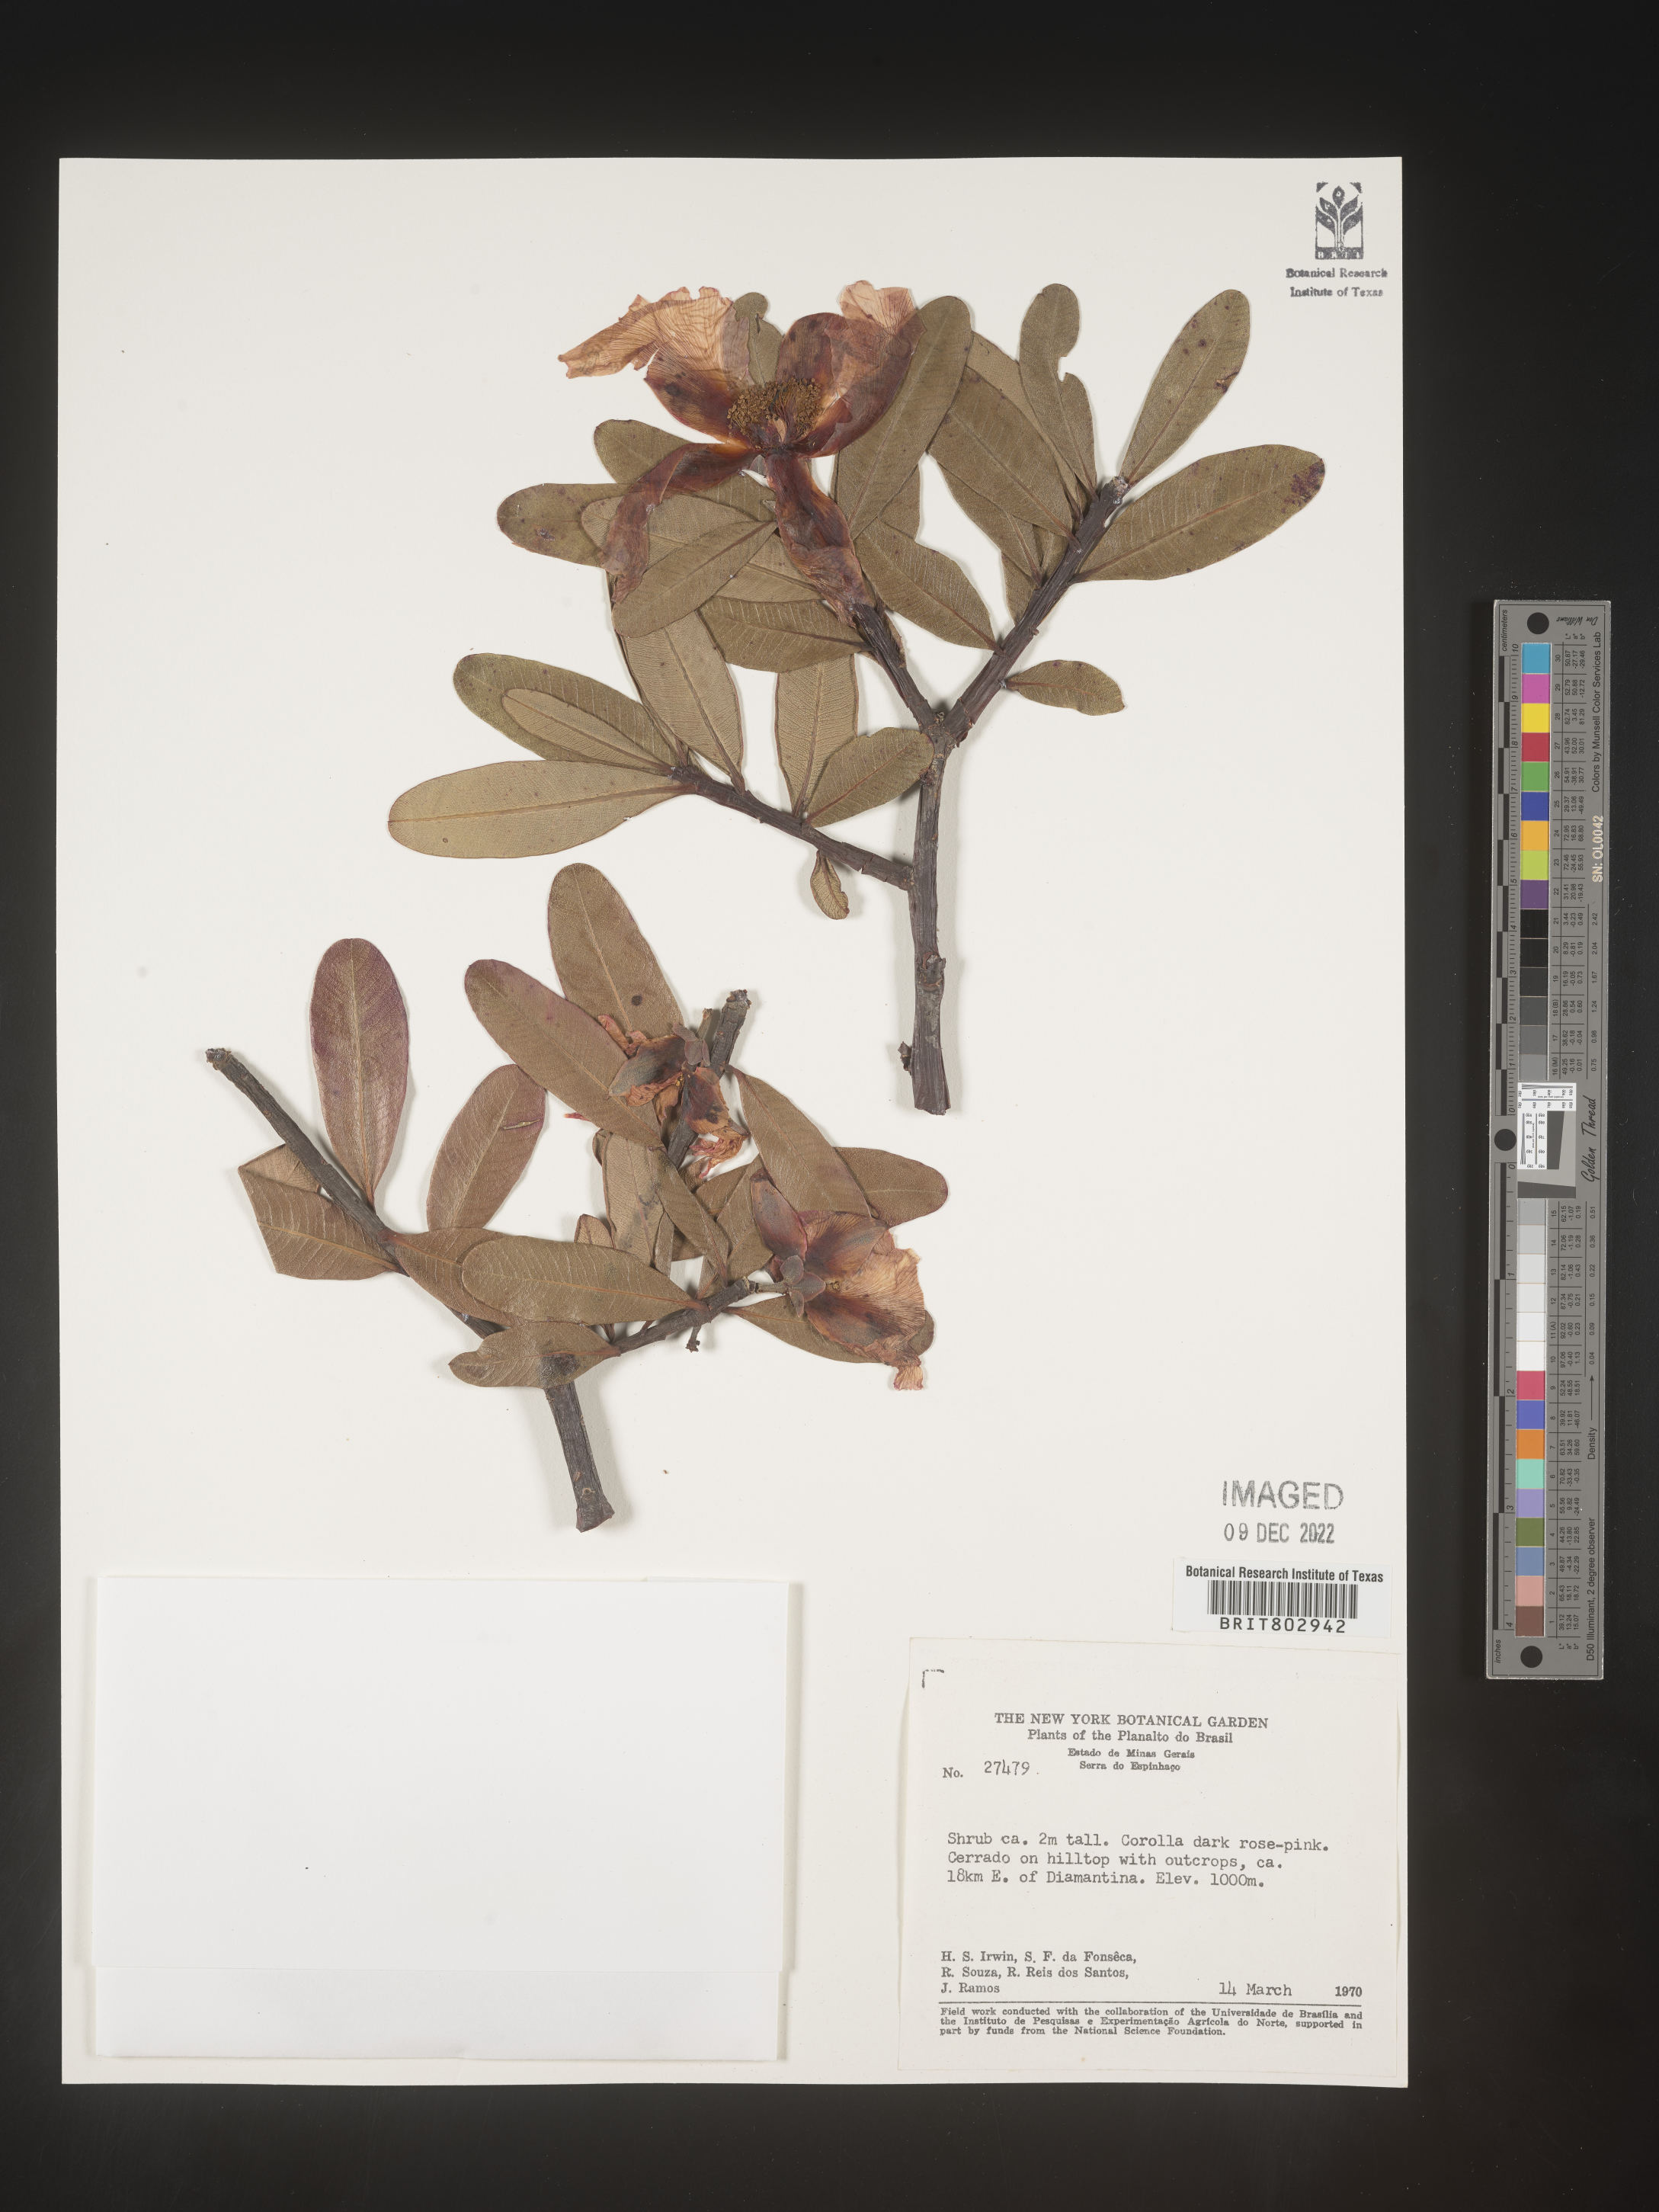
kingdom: Plantae
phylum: Tracheophyta
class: Magnoliopsida
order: Malpighiales
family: Calophyllaceae
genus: Kielmeyera
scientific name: Kielmeyera
